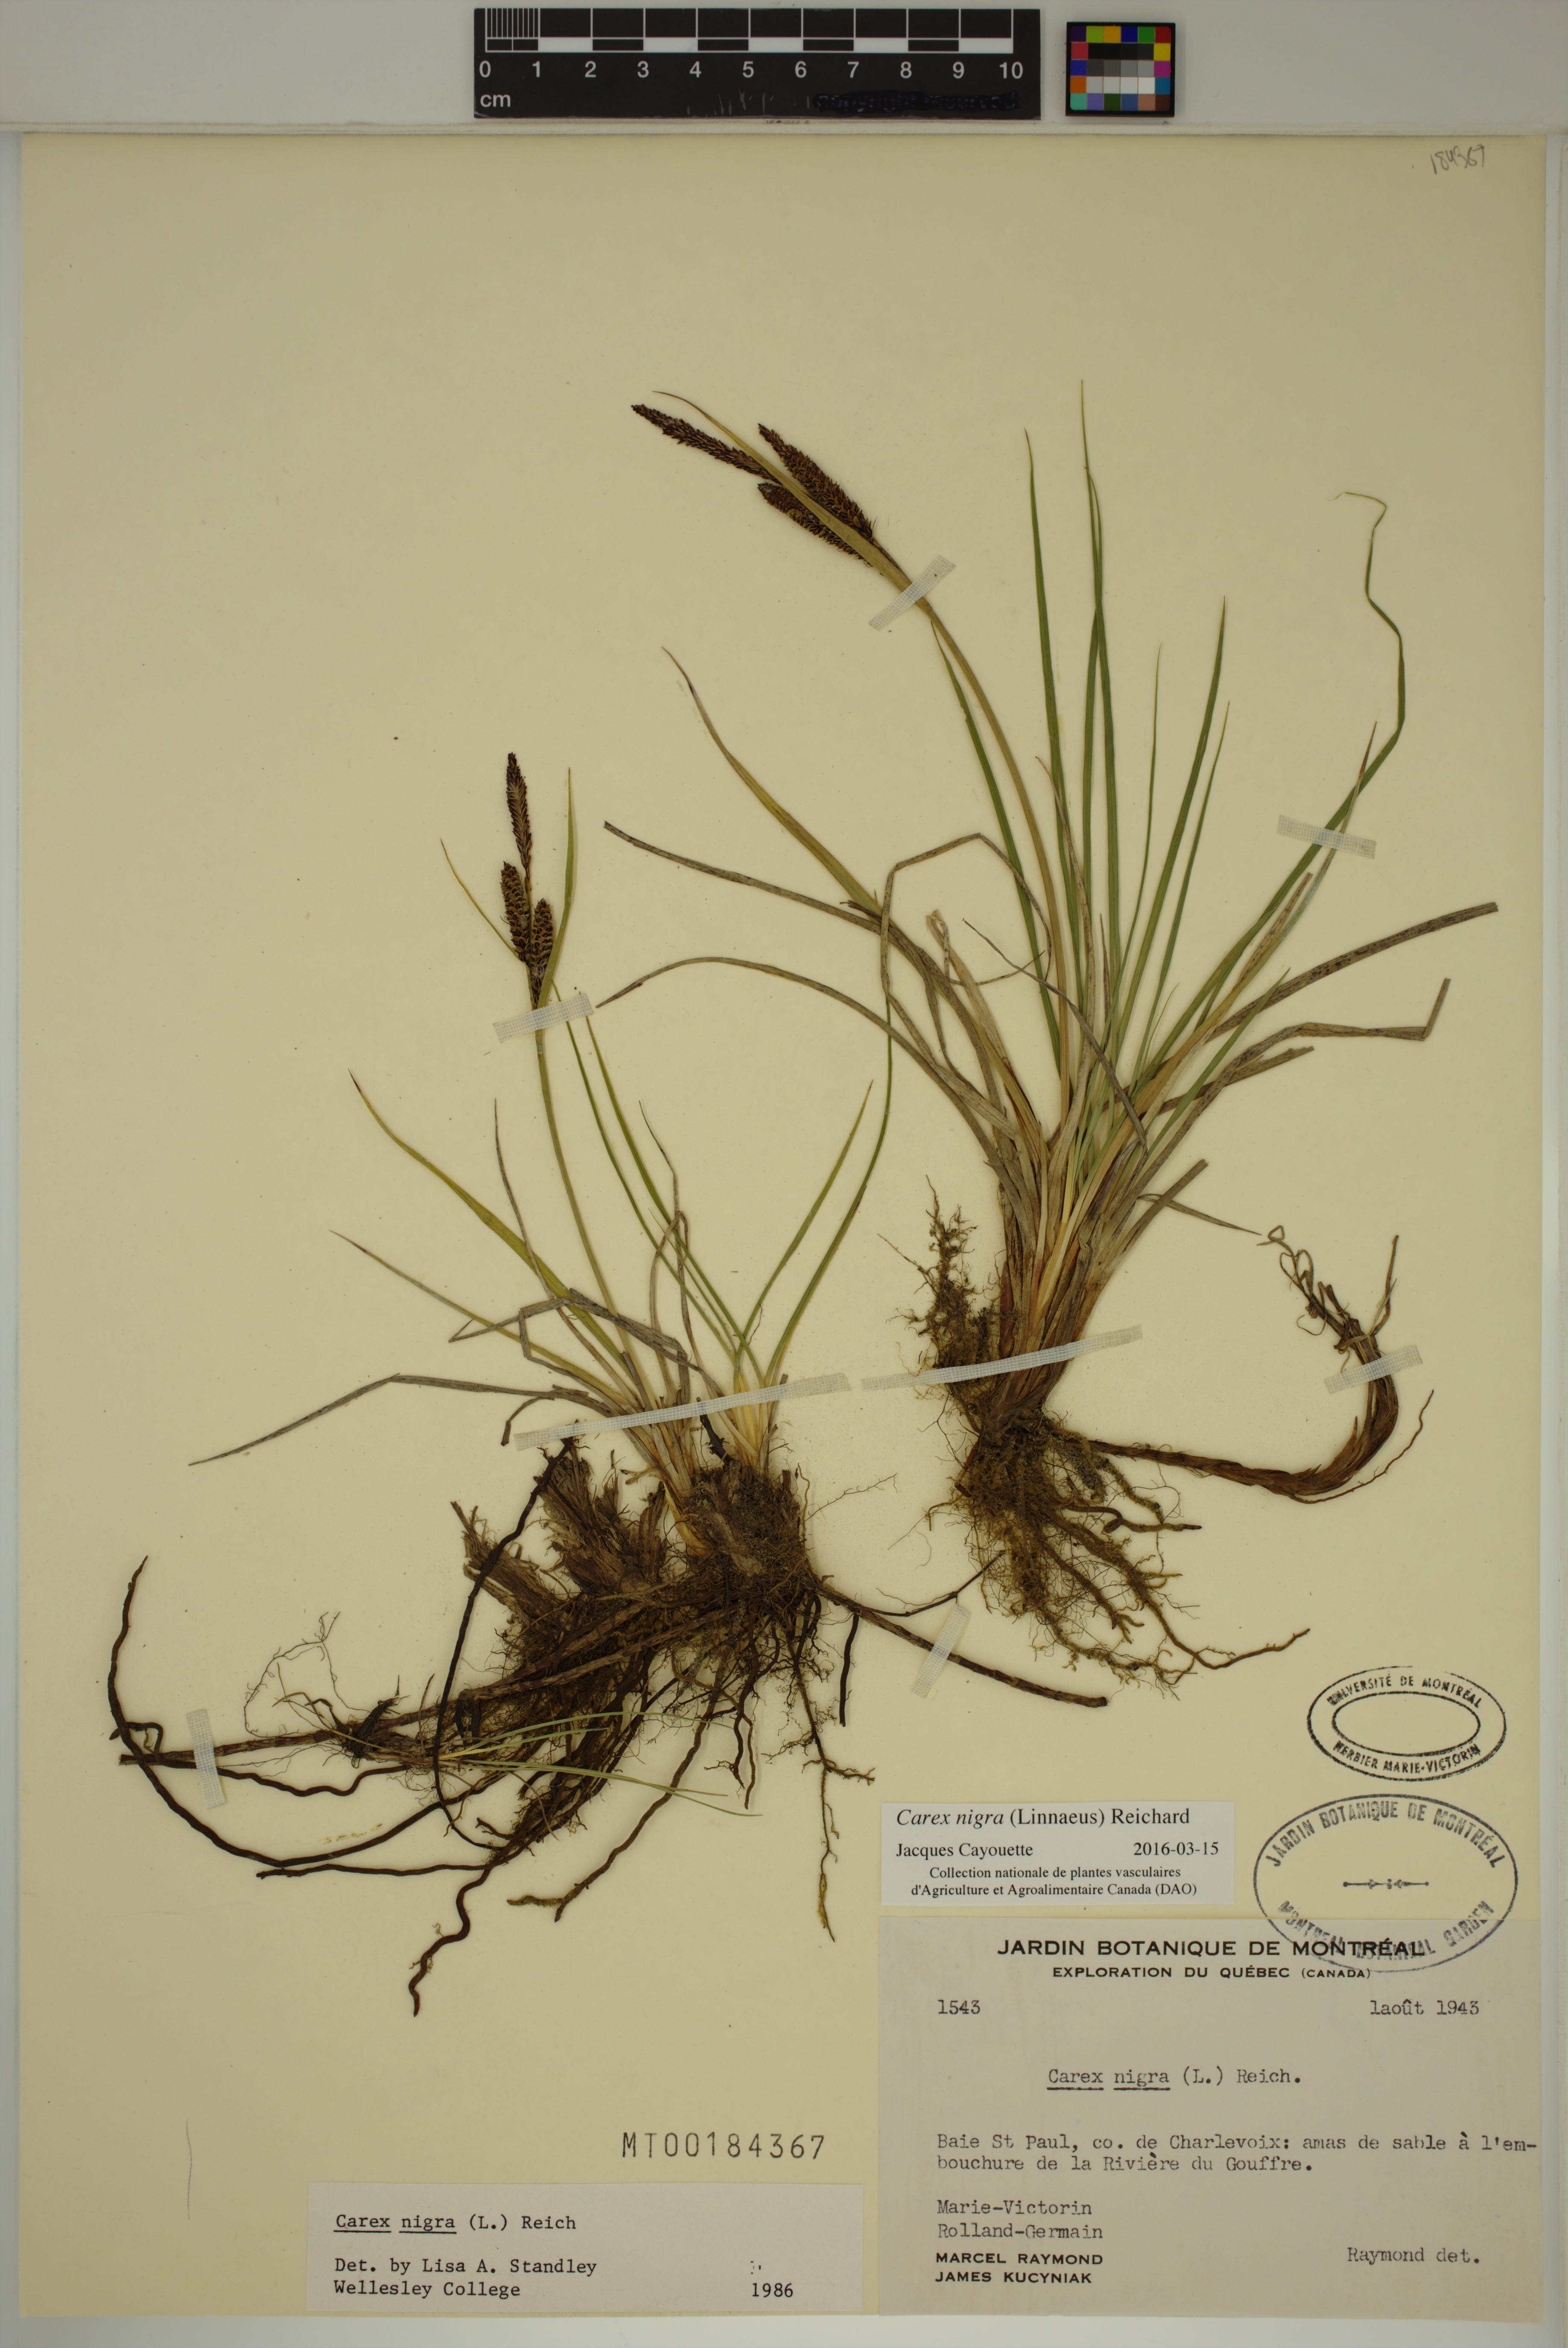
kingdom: Plantae
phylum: Tracheophyta
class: Liliopsida
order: Poales
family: Cyperaceae
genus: Carex
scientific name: Carex nigra
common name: Common sedge
